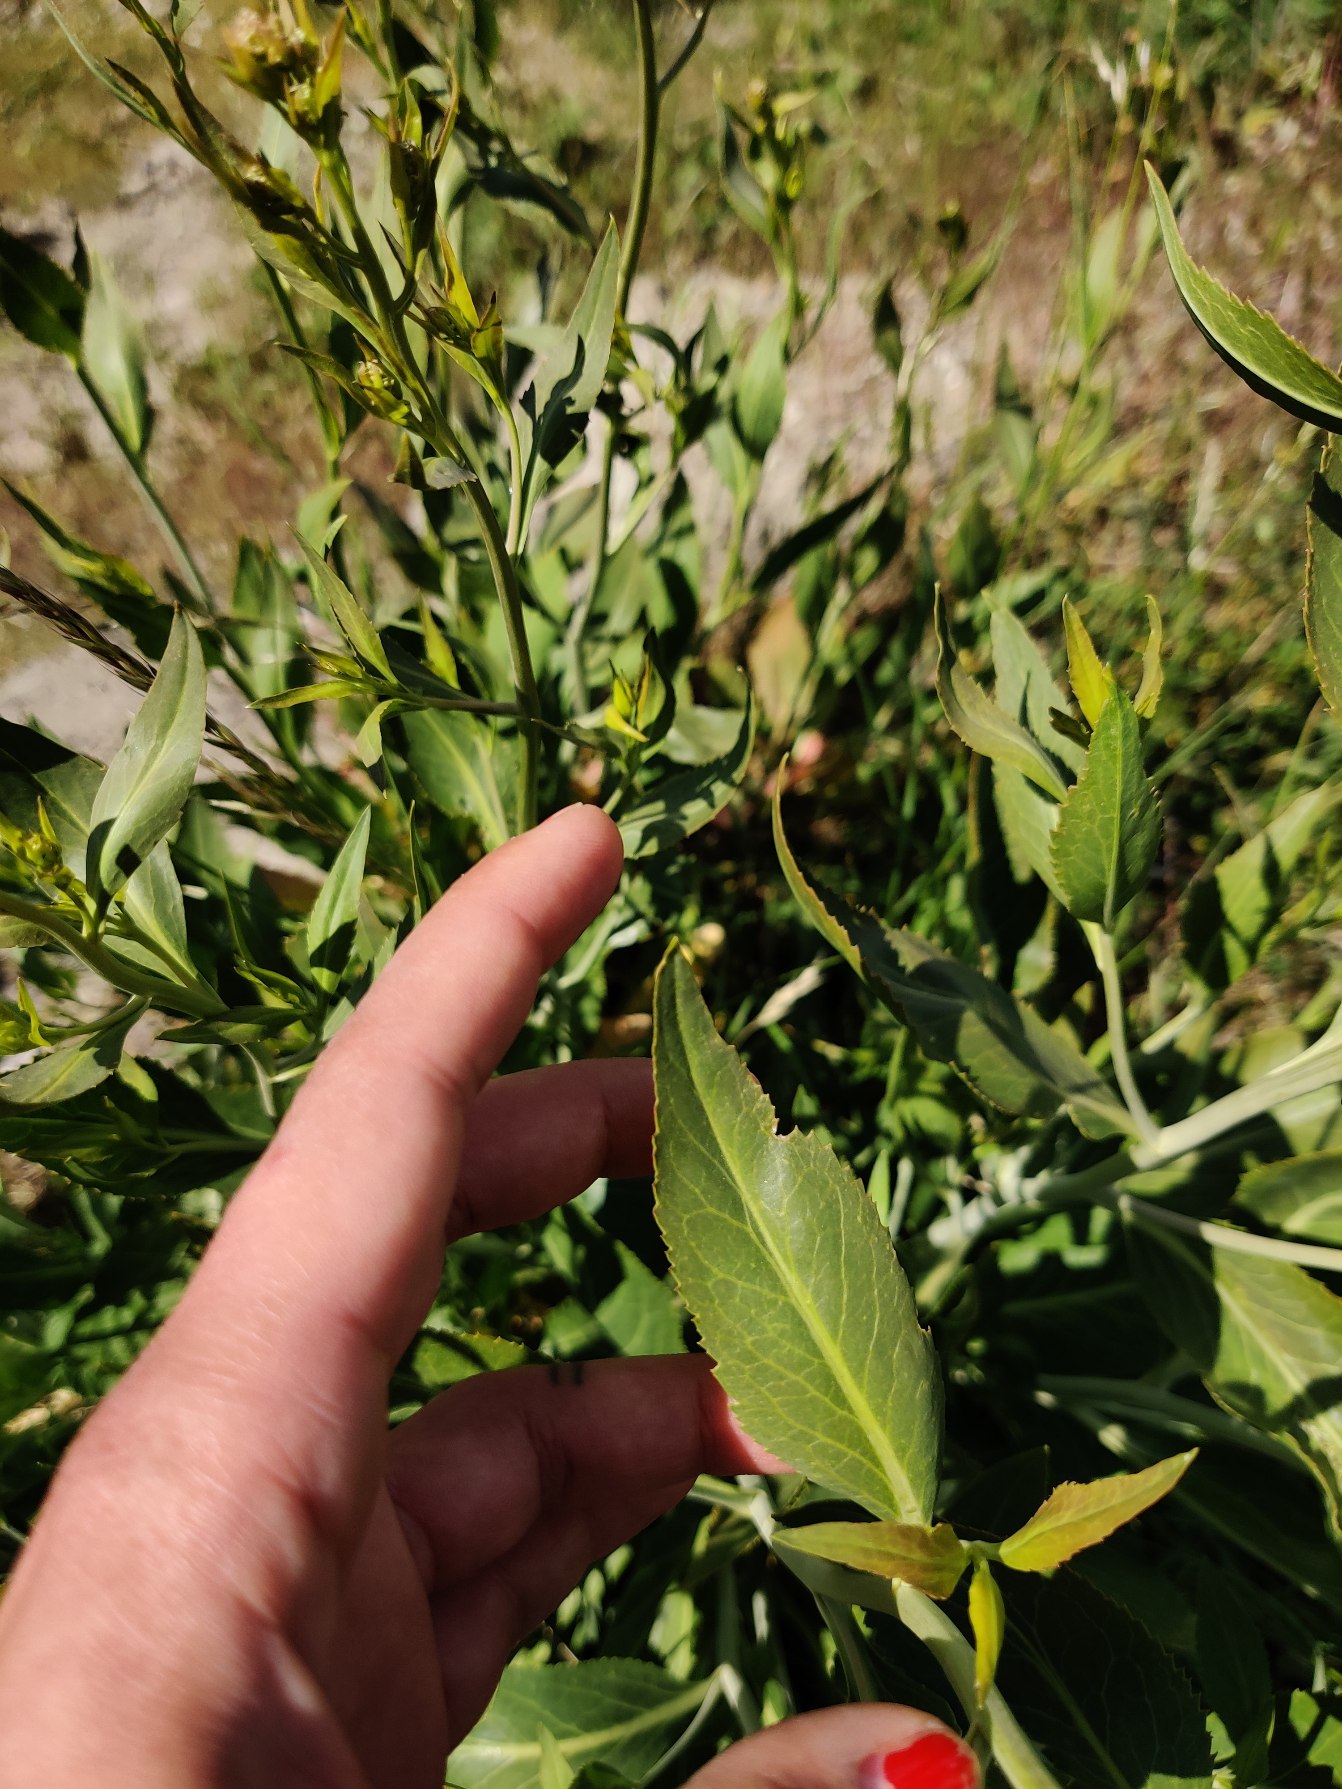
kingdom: Plantae
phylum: Tracheophyta
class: Magnoliopsida
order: Brassicales
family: Brassicaceae
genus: Lepidium
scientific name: Lepidium latifolium
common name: Strand-karse
